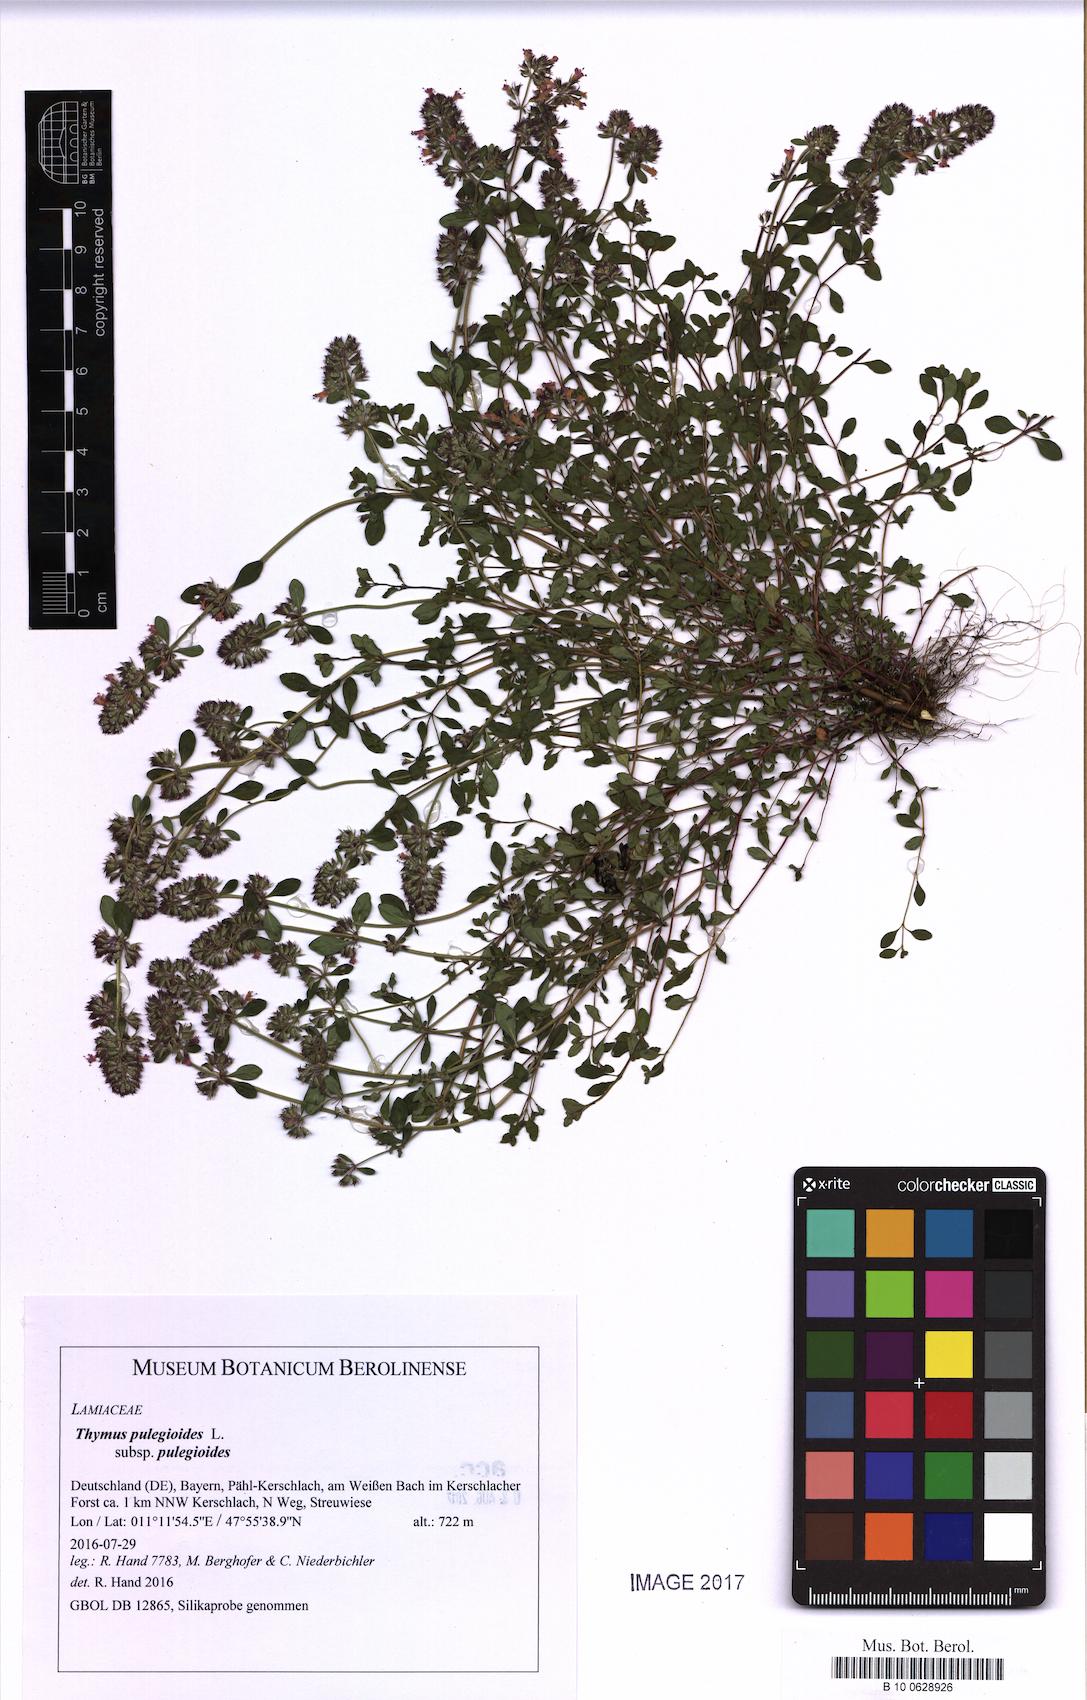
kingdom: Plantae
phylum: Tracheophyta
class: Magnoliopsida
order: Lamiales
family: Lamiaceae
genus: Thymus
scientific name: Thymus pulegioides
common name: Large thyme
